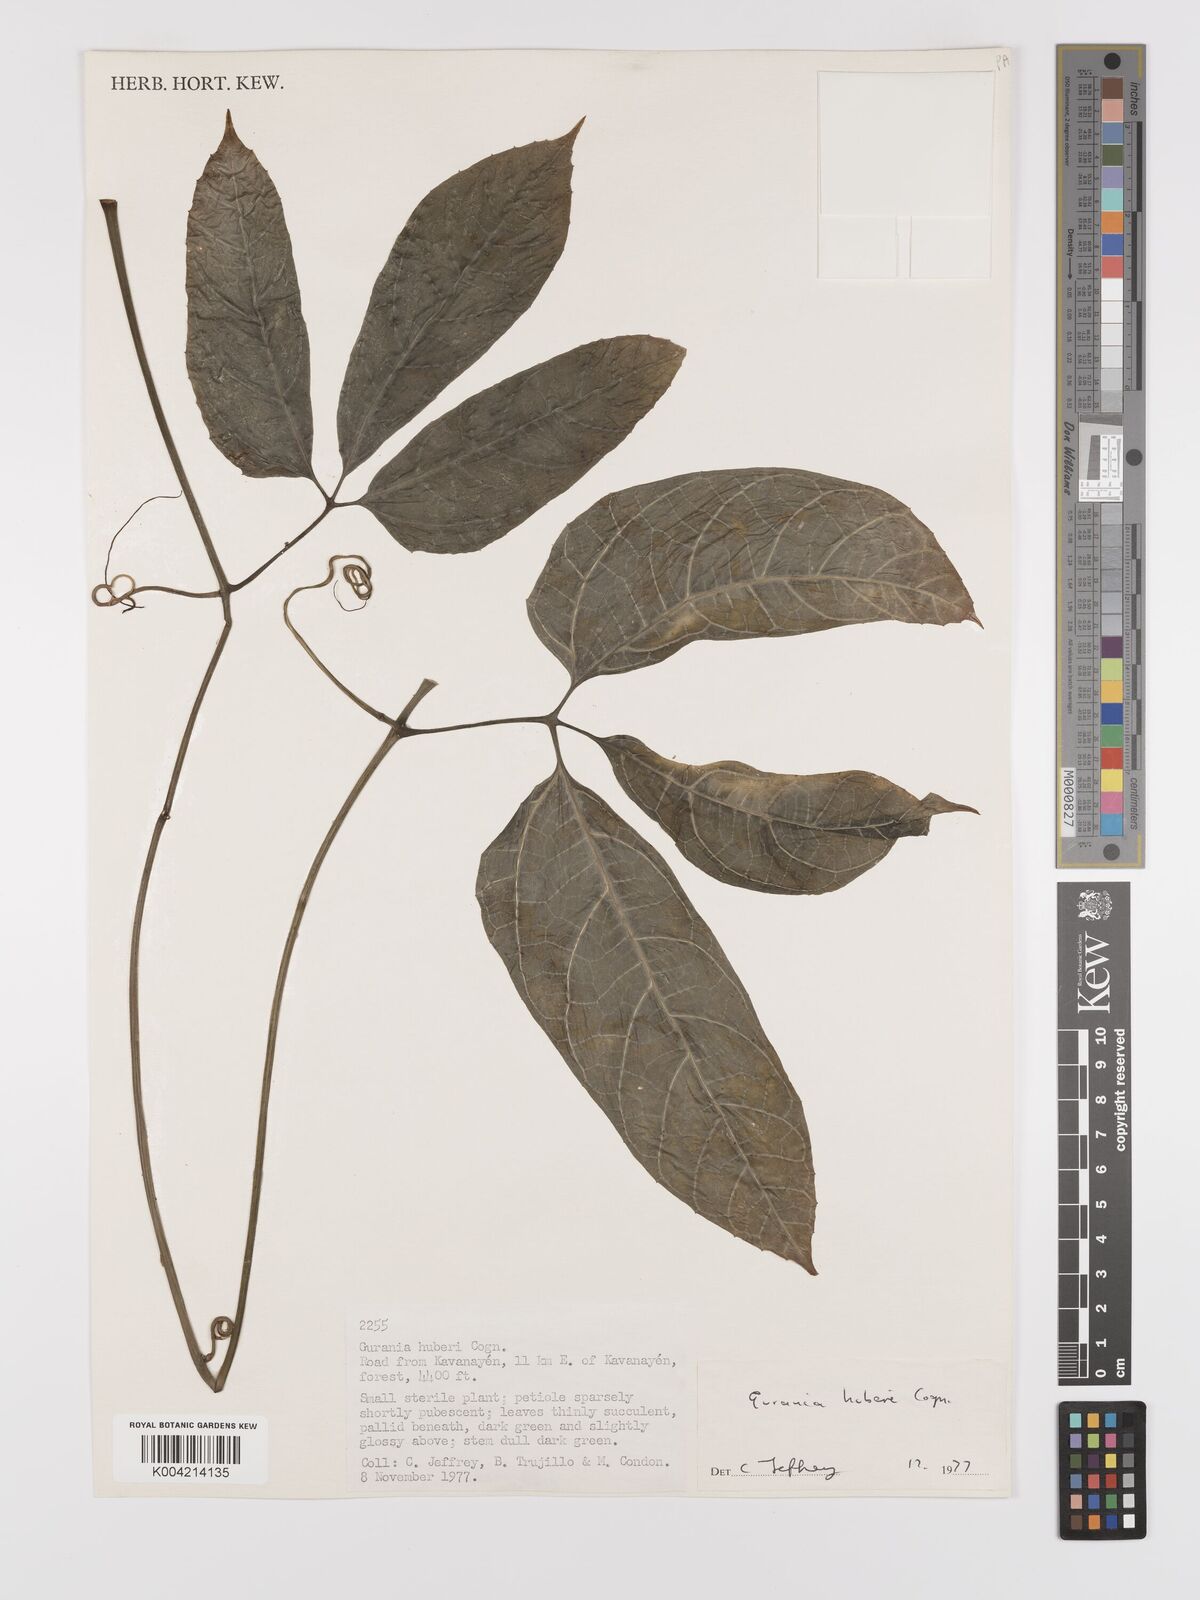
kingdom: Plantae
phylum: Tracheophyta
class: Magnoliopsida
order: Cucurbitales
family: Cucurbitaceae
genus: Gurania
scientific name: Gurania huberi
